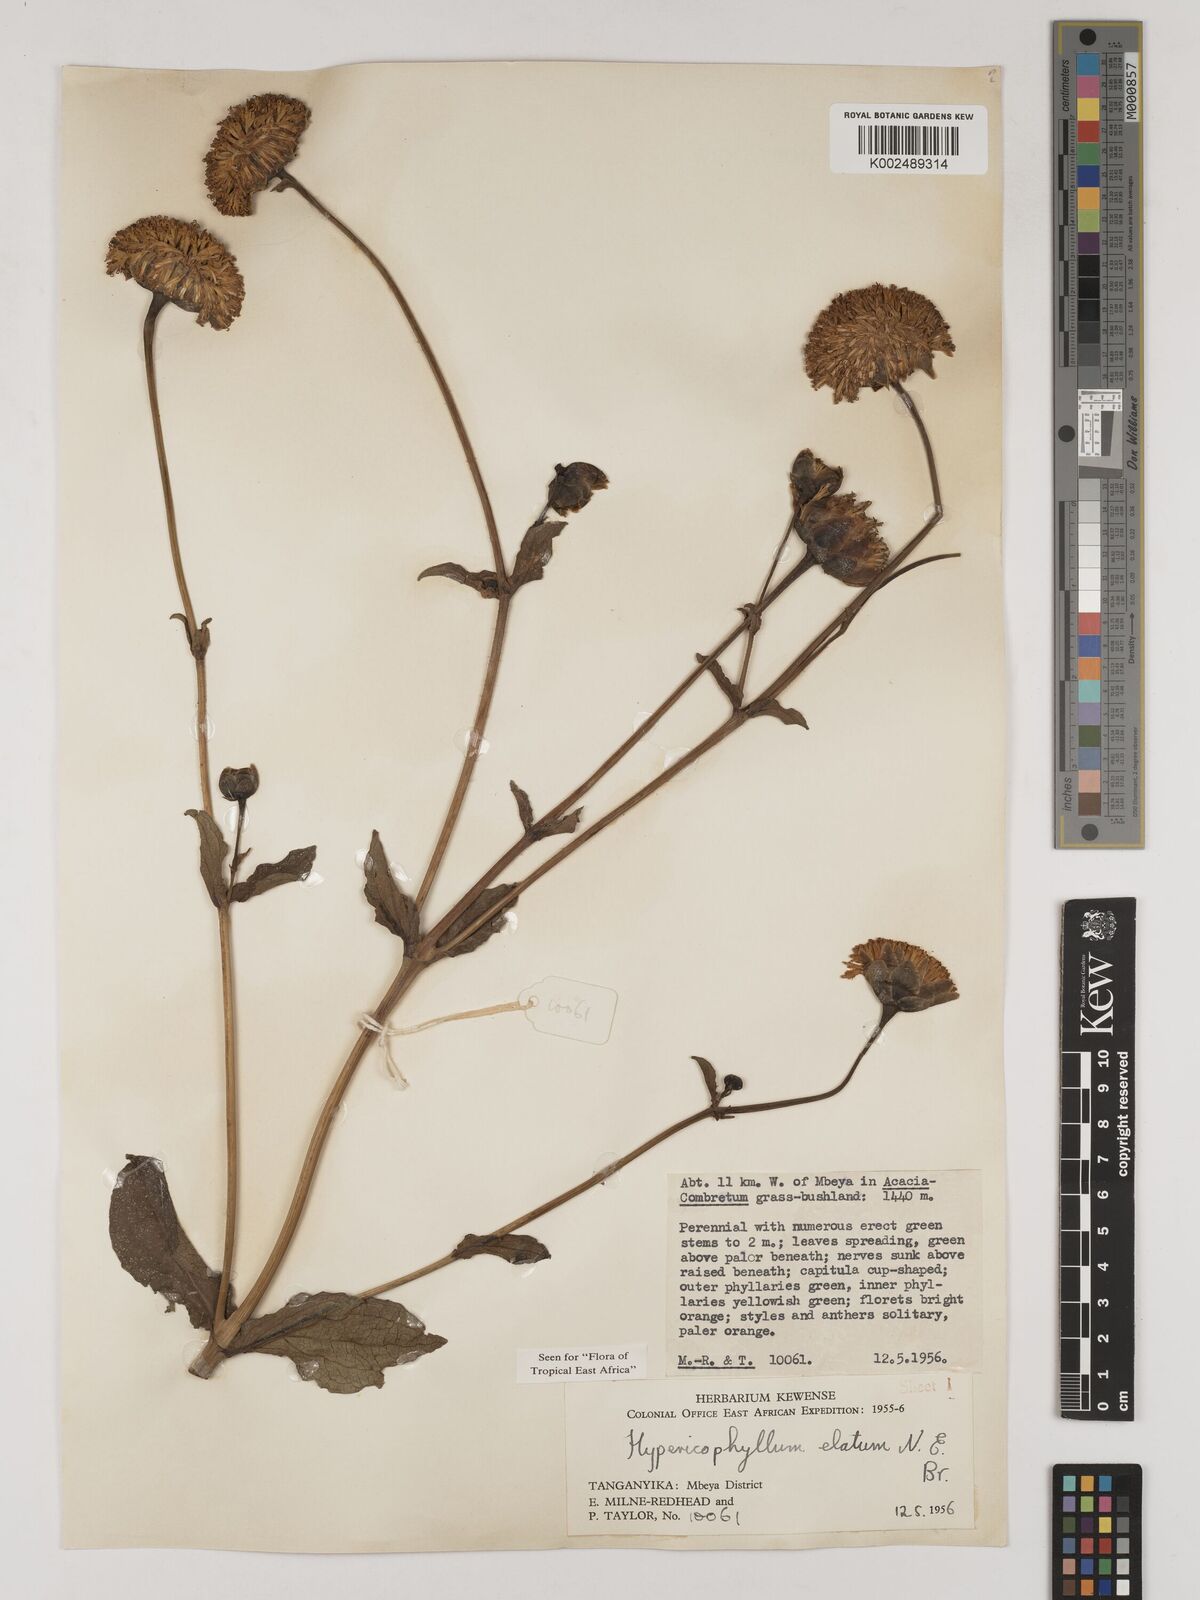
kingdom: Plantae
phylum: Tracheophyta
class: Magnoliopsida
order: Asterales
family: Asteraceae
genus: Hypericophyllum
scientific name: Hypericophyllum elatum
